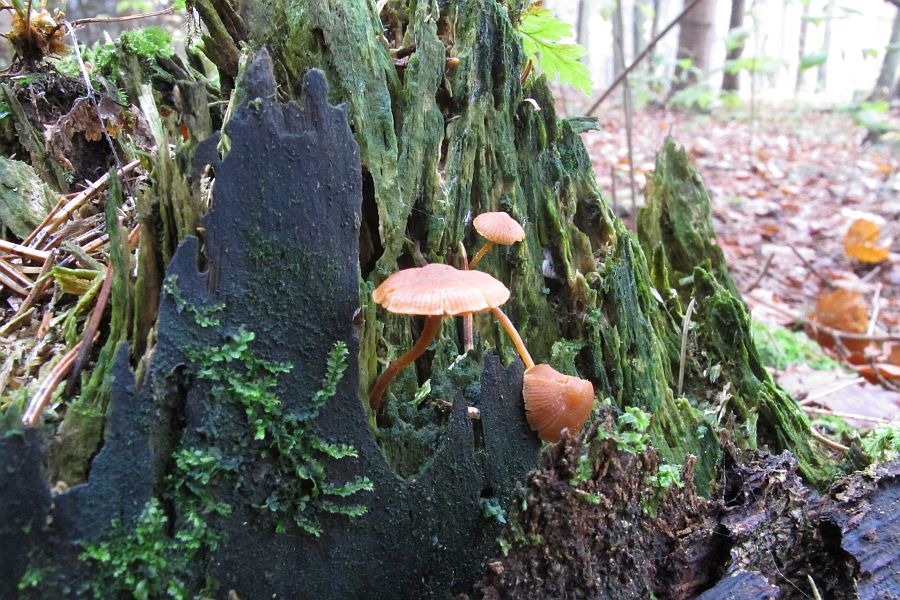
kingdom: Fungi
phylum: Basidiomycota
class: Agaricomycetes
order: Agaricales
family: Hymenogastraceae
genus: Galerina
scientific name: Galerina triscopa
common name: spidspuklet hjelmhat
